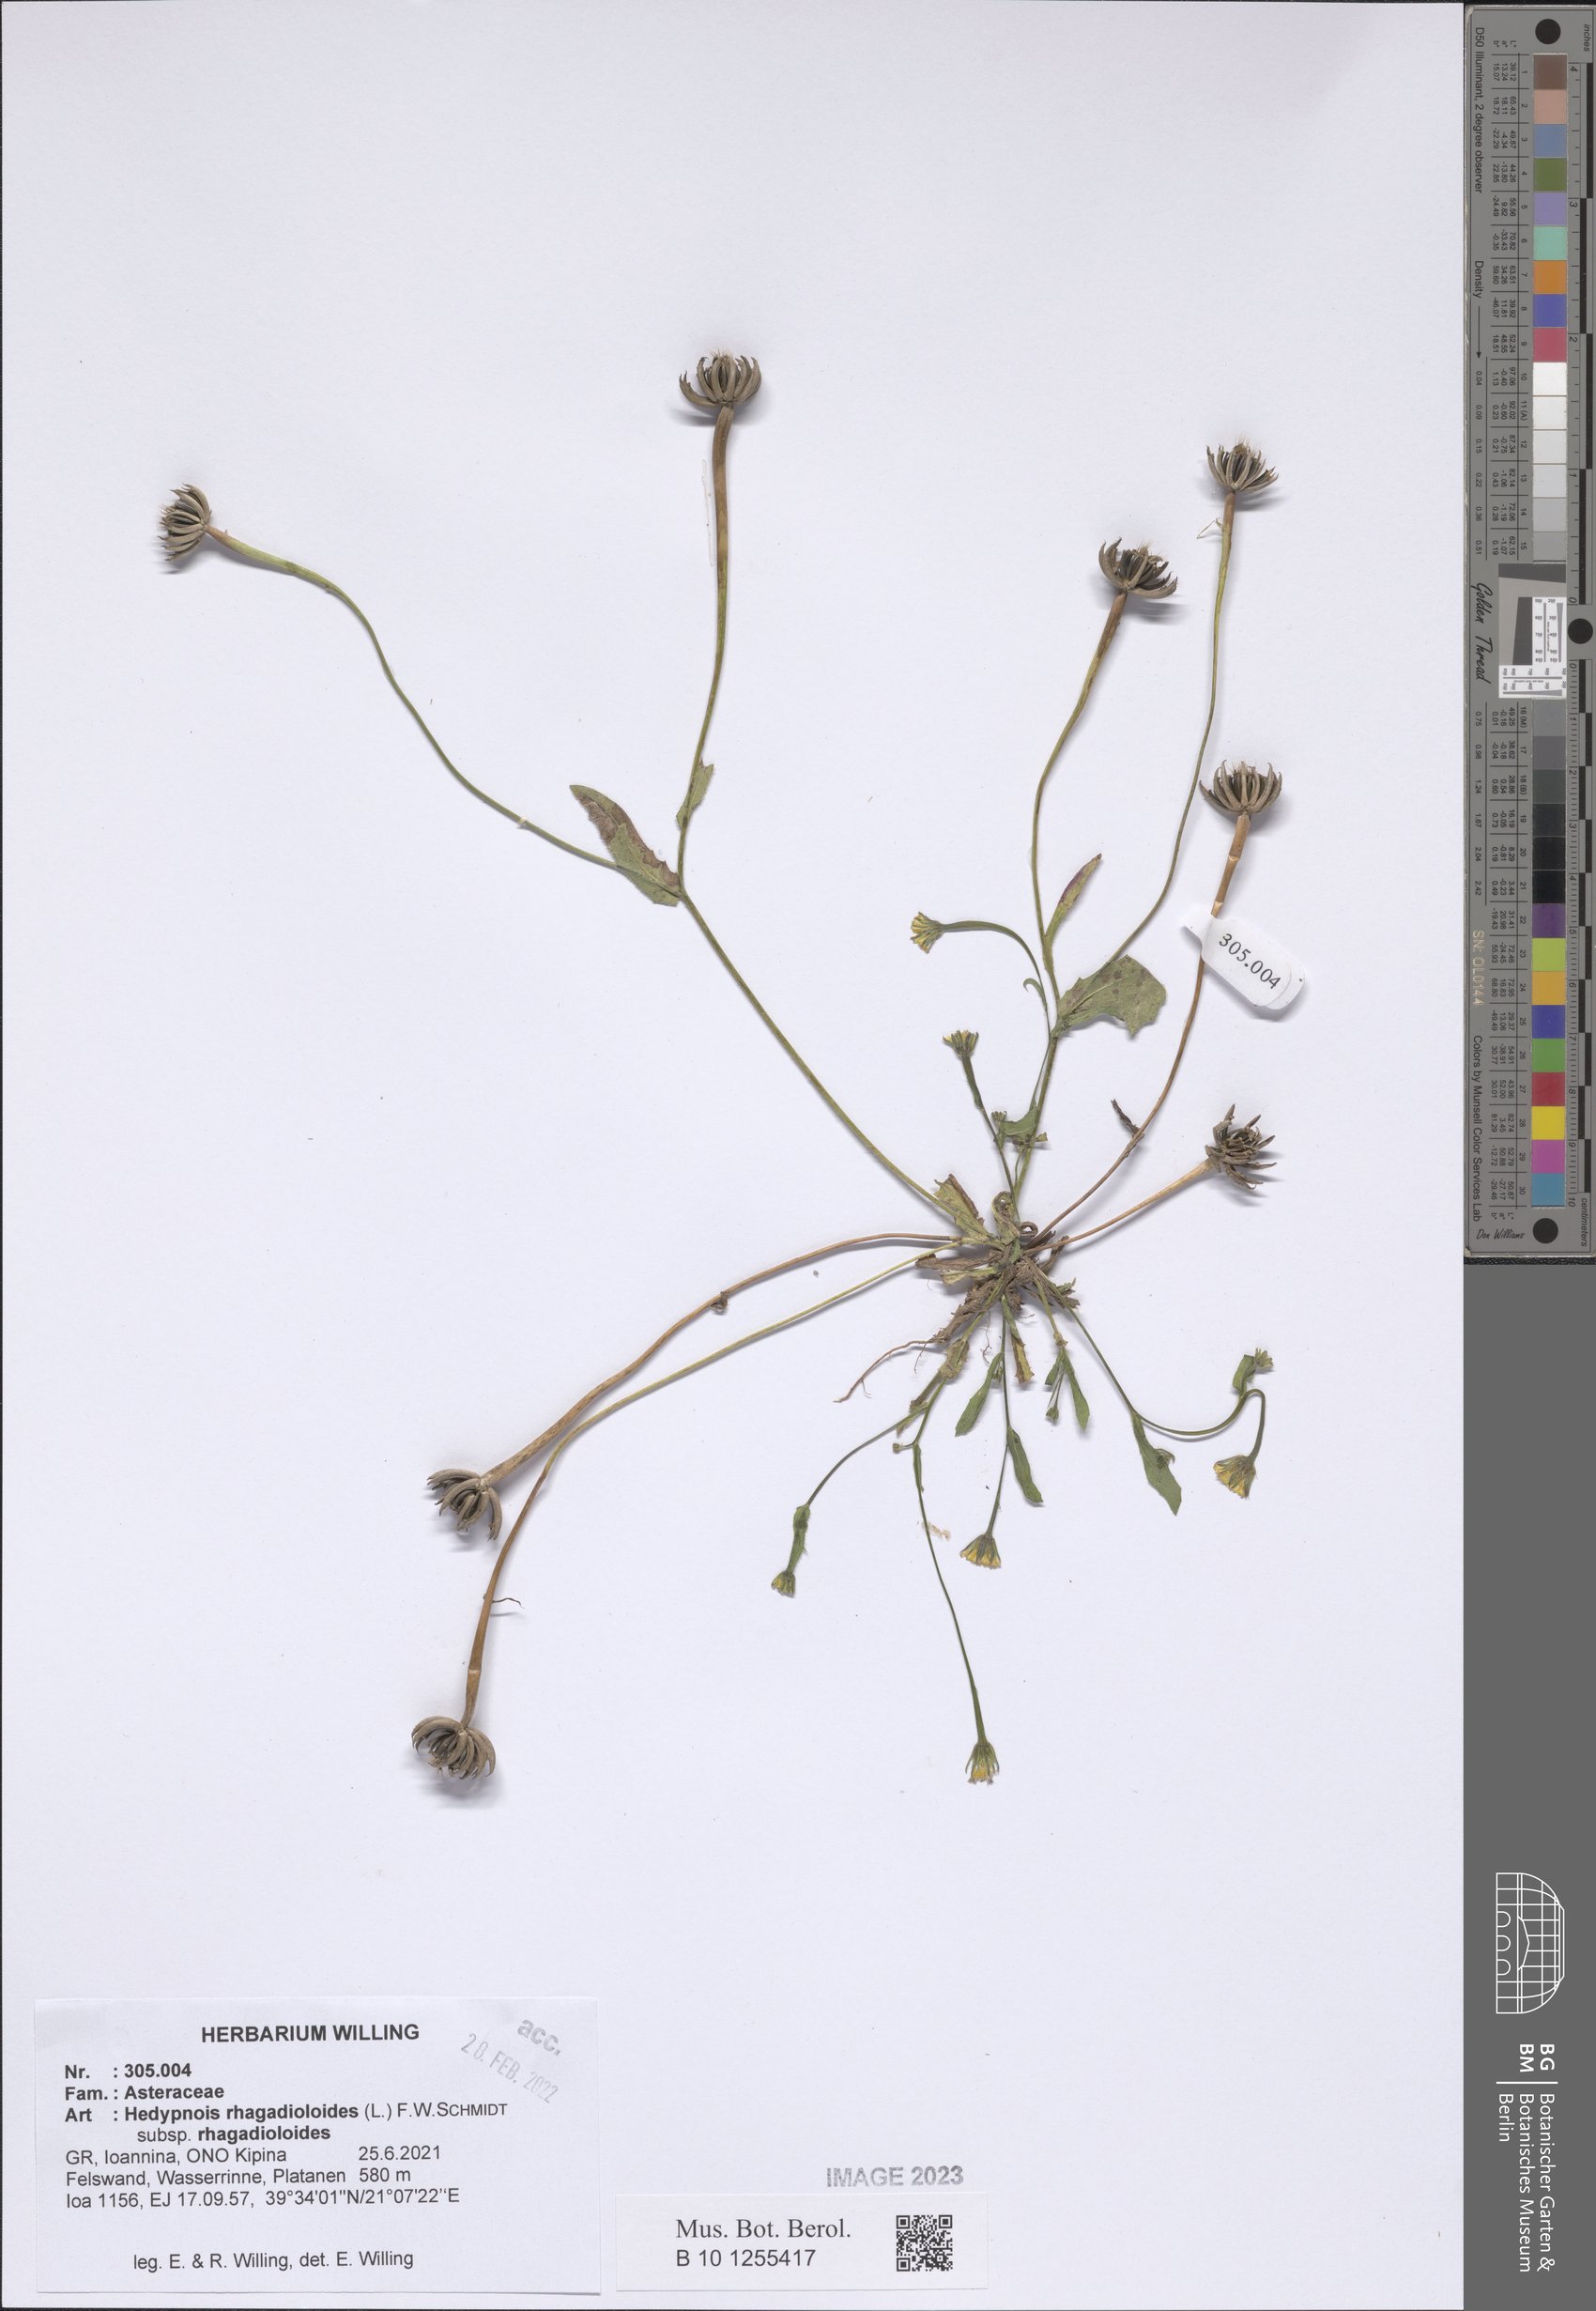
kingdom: Plantae
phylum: Tracheophyta
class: Magnoliopsida
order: Asterales
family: Asteraceae
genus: Hedypnois
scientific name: Hedypnois rhagadioloides
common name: Cretan weed
